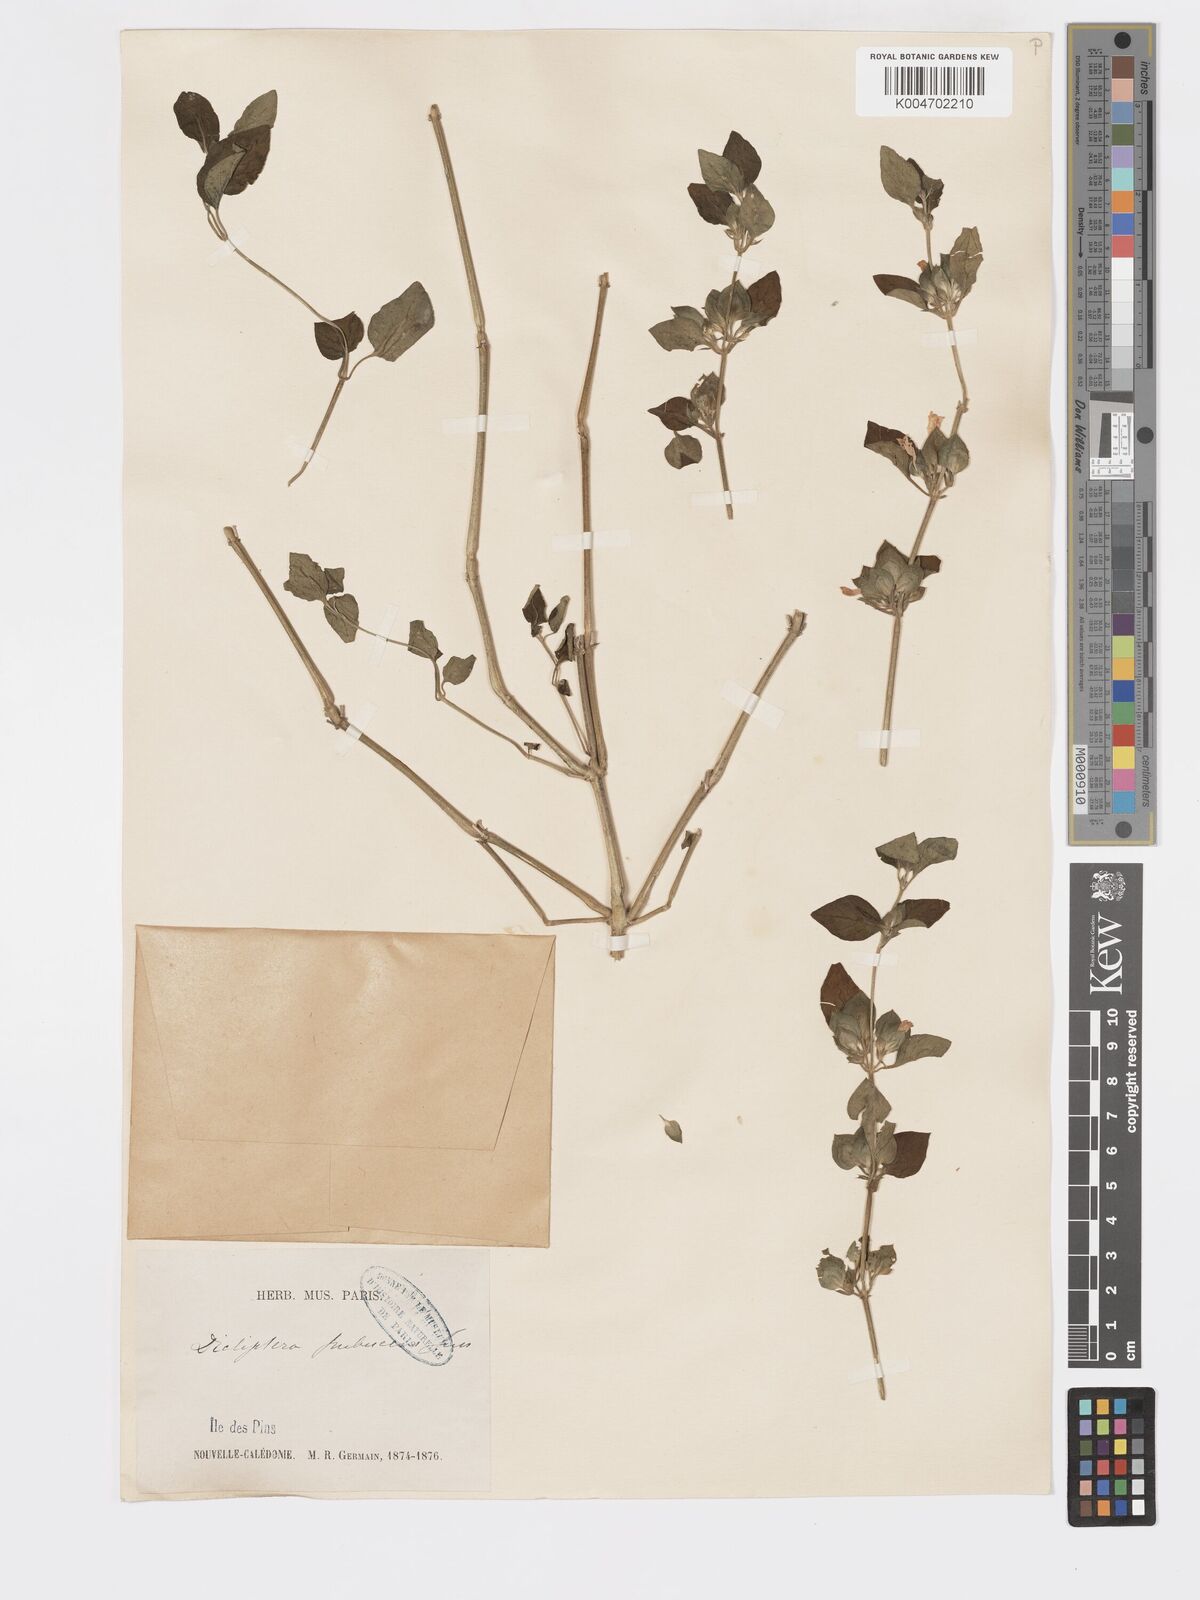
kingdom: Plantae
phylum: Tracheophyta
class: Magnoliopsida
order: Lamiales
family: Acanthaceae
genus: Rungia
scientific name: Rungia parviflora
